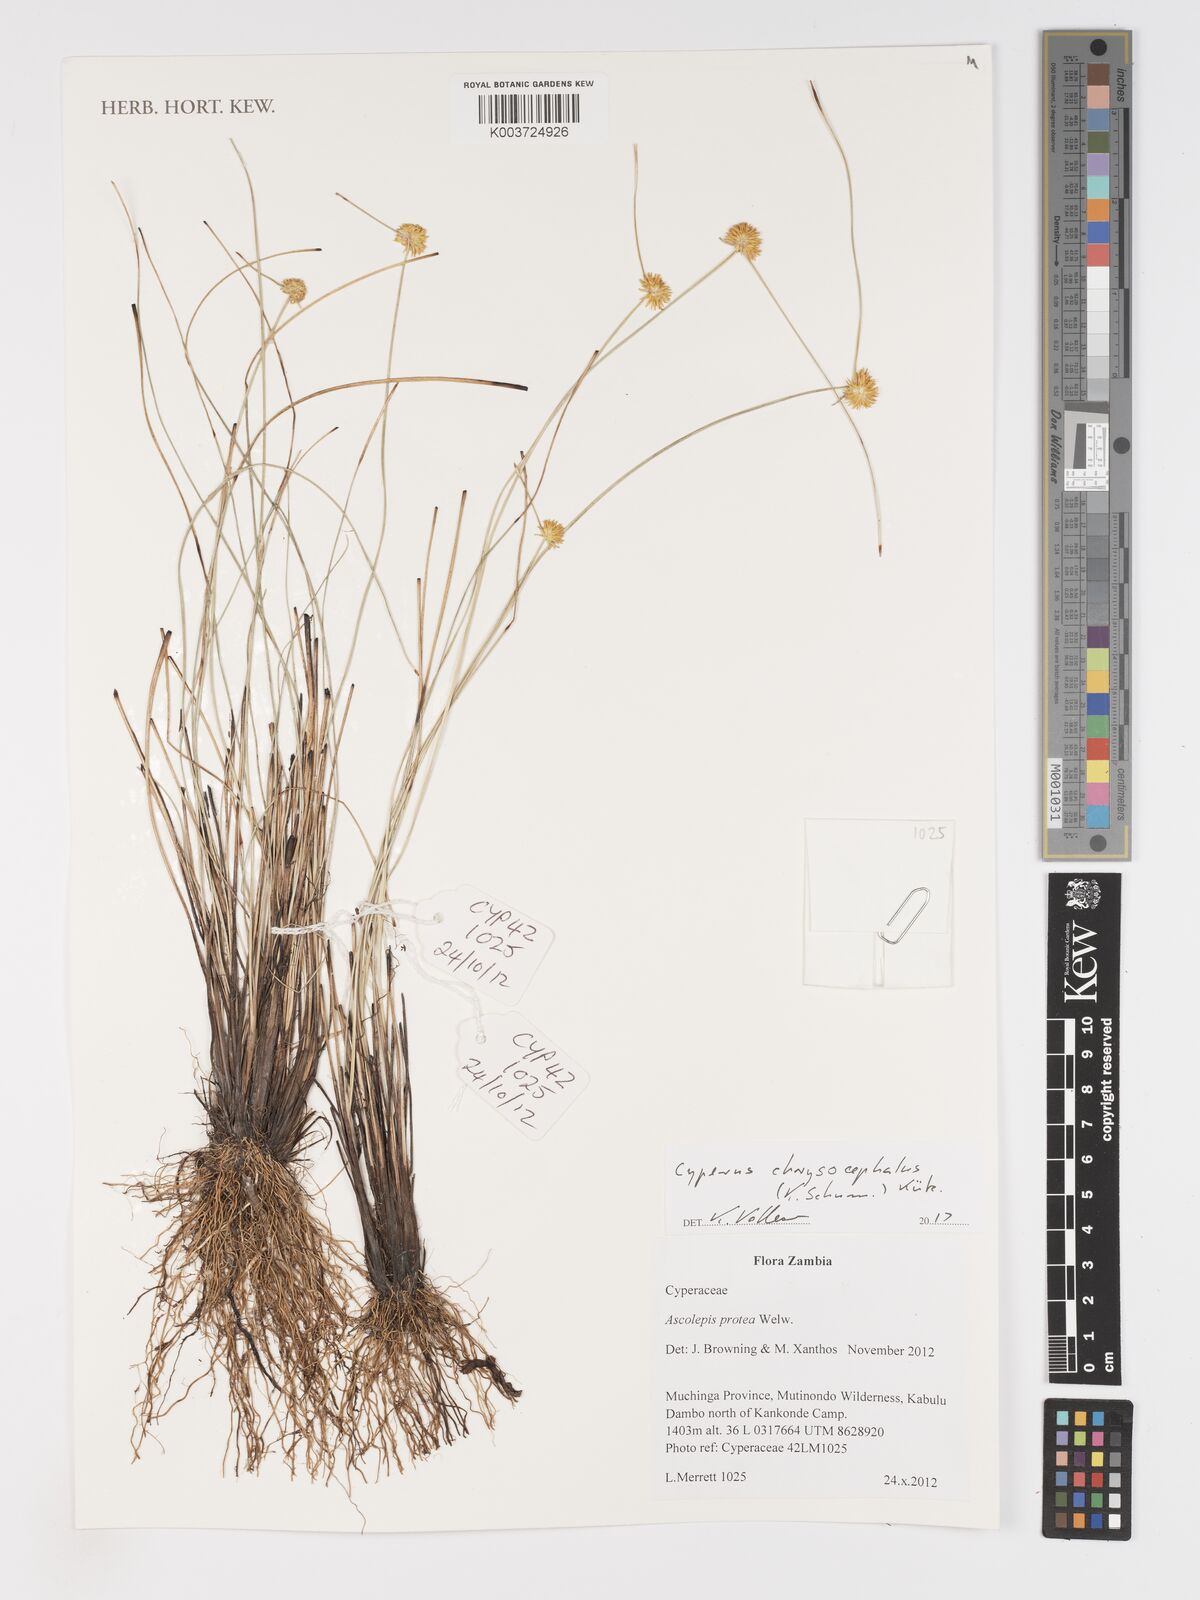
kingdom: Plantae
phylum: Tracheophyta
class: Liliopsida
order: Poales
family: Cyperaceae
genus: Cyperus
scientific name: Cyperus chrysocephalus
